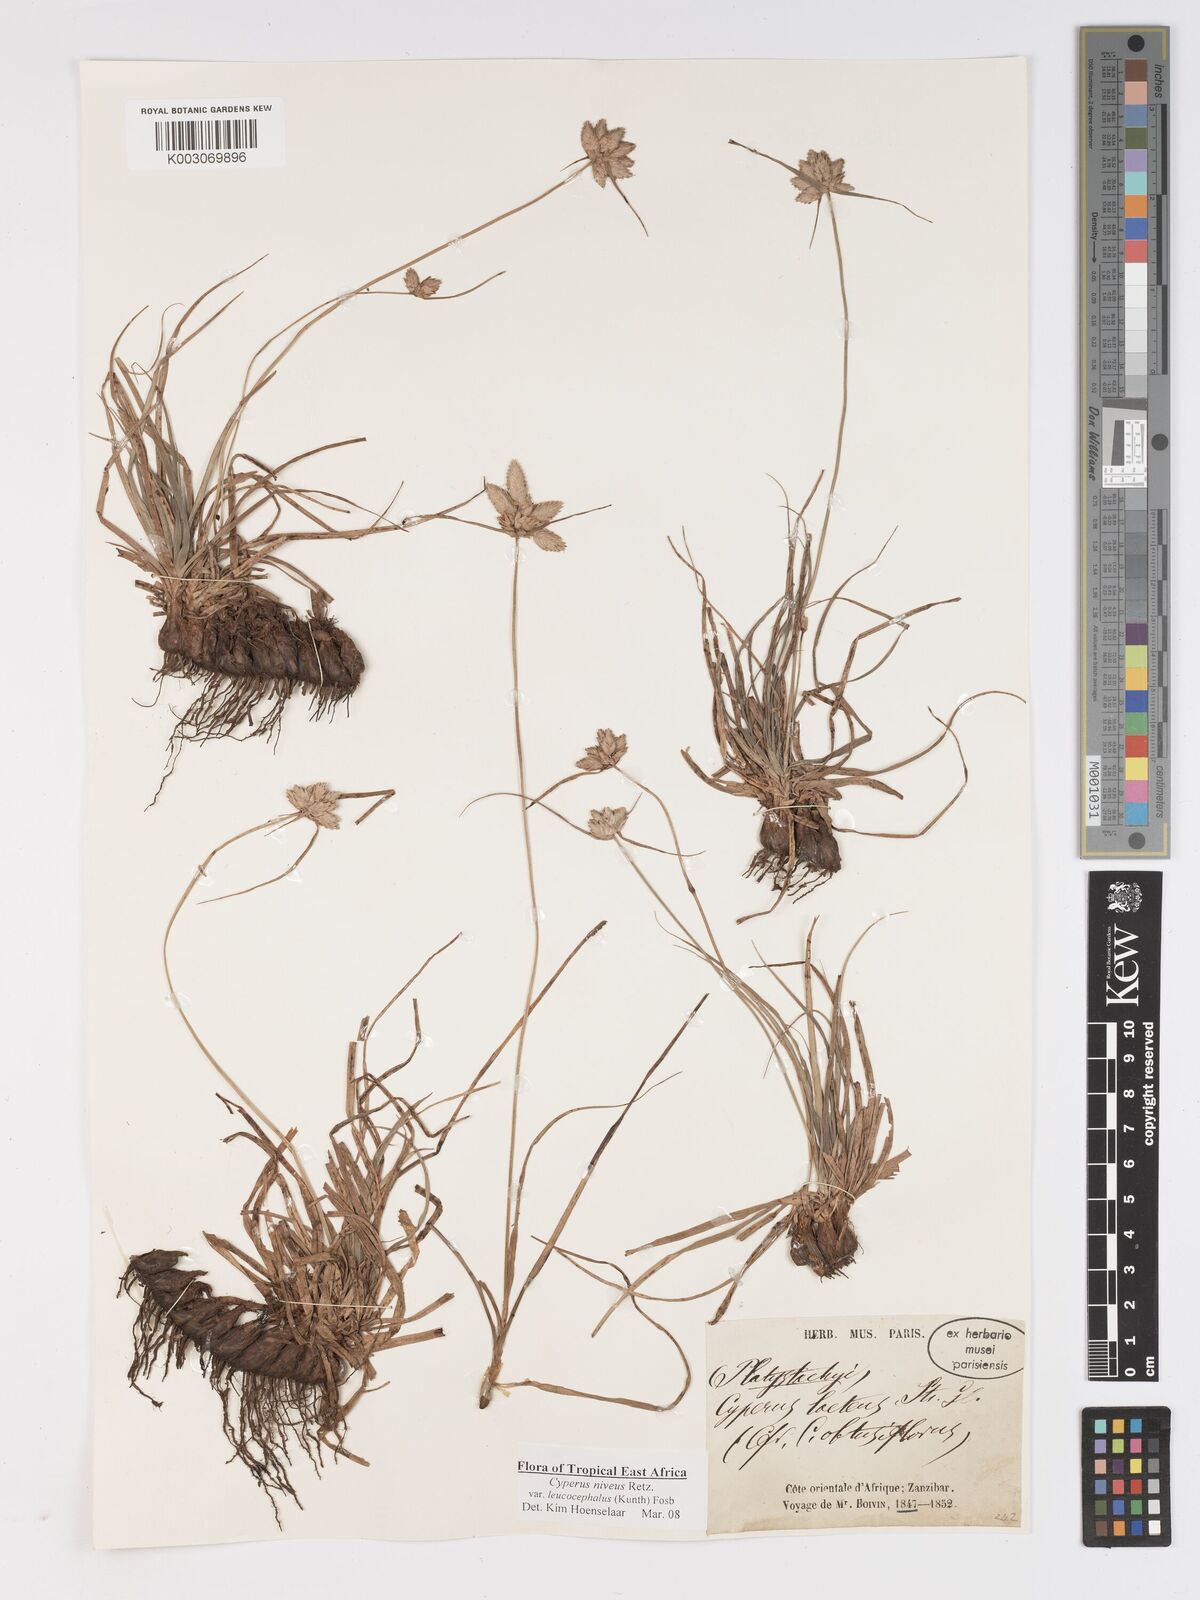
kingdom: Plantae
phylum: Tracheophyta
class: Liliopsida
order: Poales
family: Cyperaceae
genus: Cyperus
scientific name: Cyperus niveus
